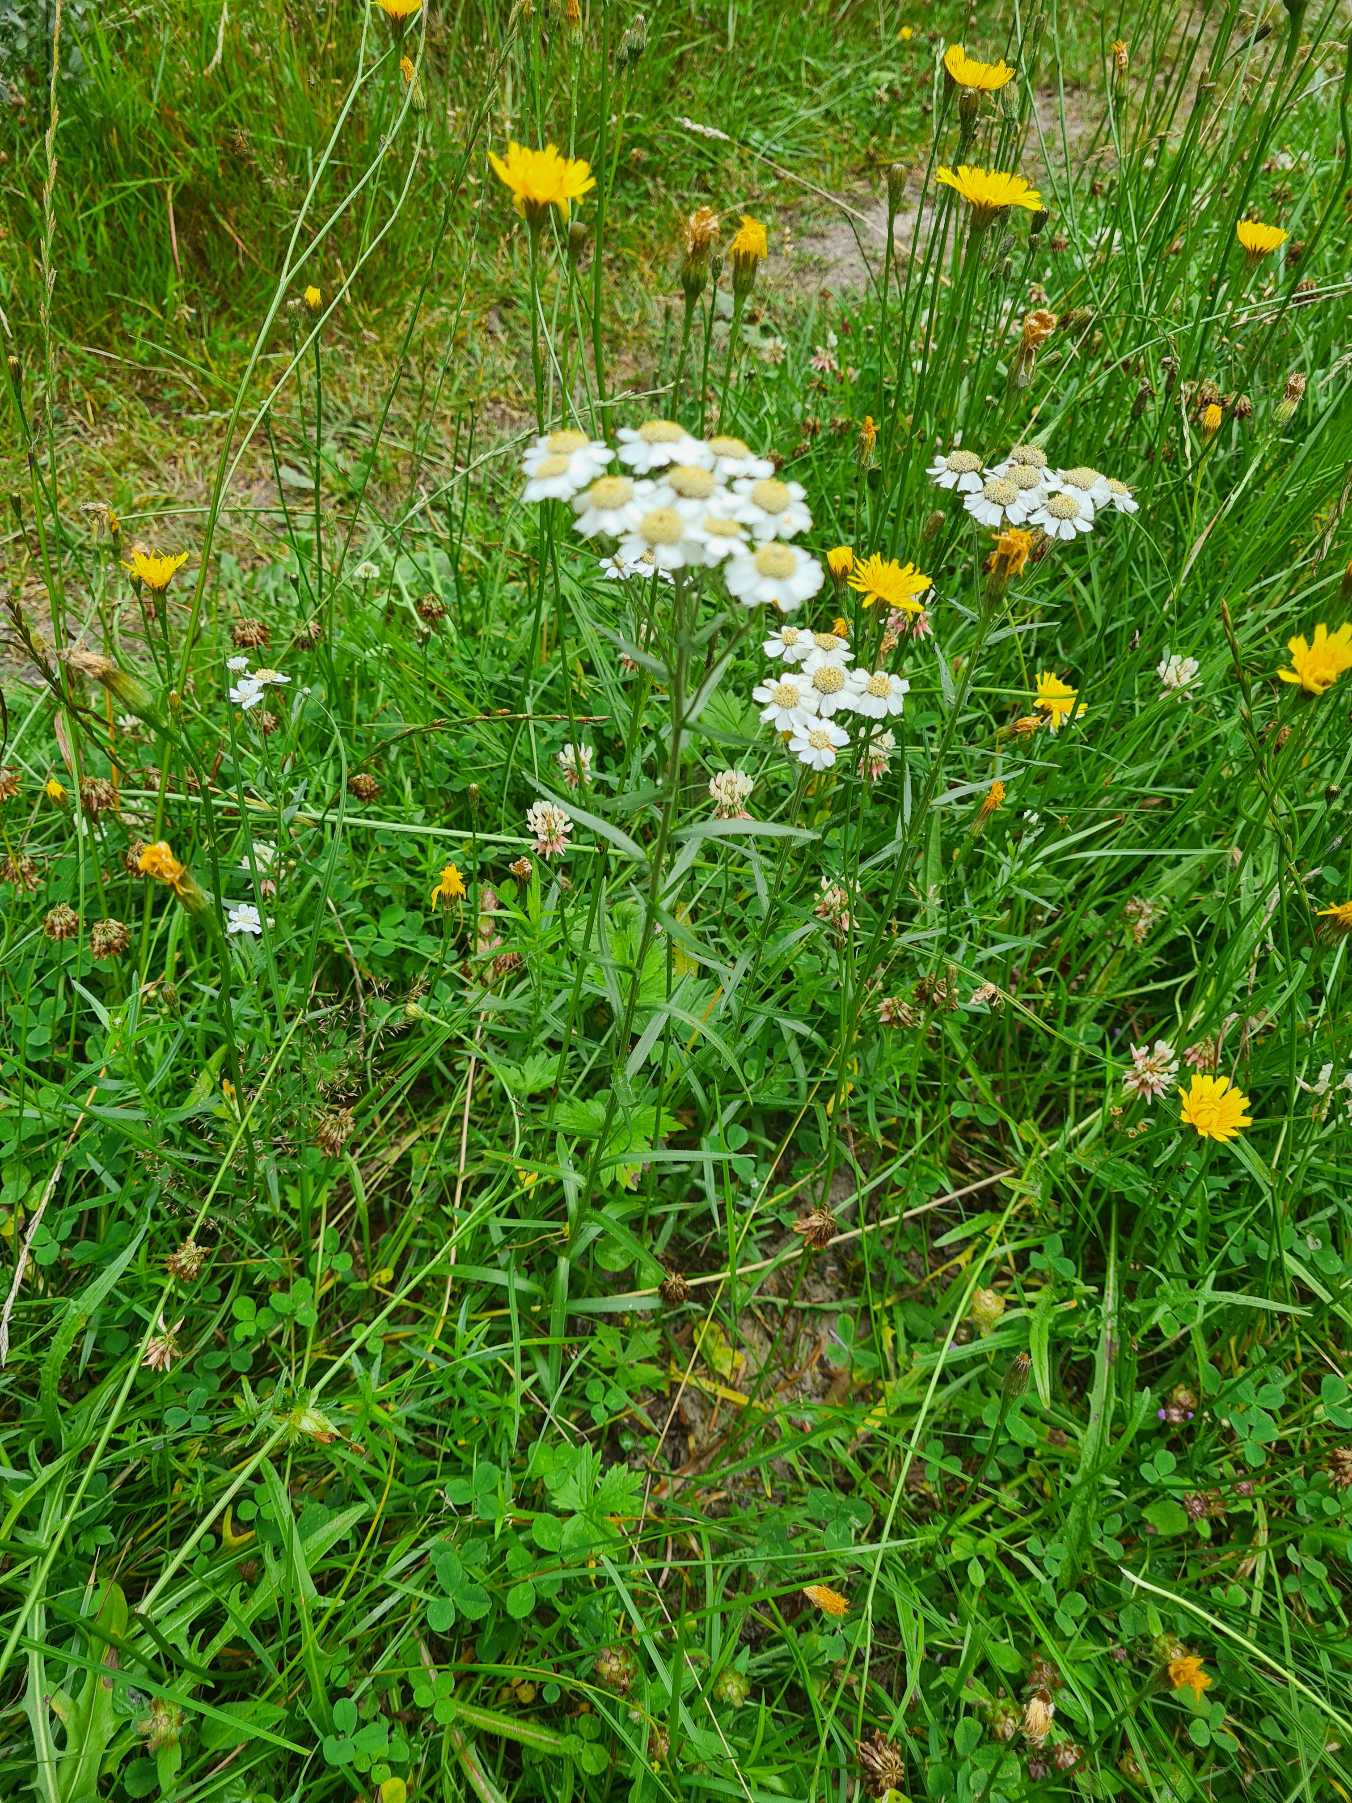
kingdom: Plantae
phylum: Tracheophyta
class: Magnoliopsida
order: Asterales
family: Asteraceae
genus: Achillea
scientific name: Achillea ptarmica
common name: Nyse-røllike
